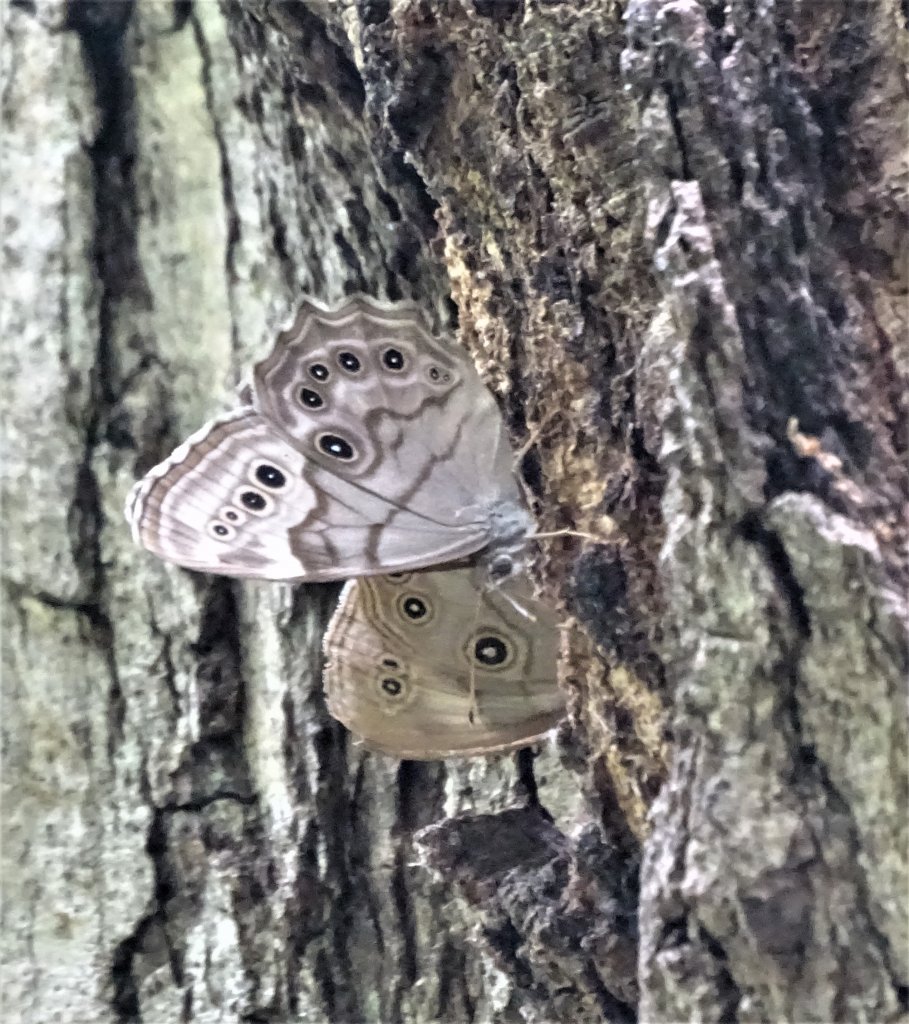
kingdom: Animalia
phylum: Arthropoda
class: Insecta
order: Lepidoptera
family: Nymphalidae
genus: Lethe
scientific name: Lethe anthedon
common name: Northern Pearly-Eye
